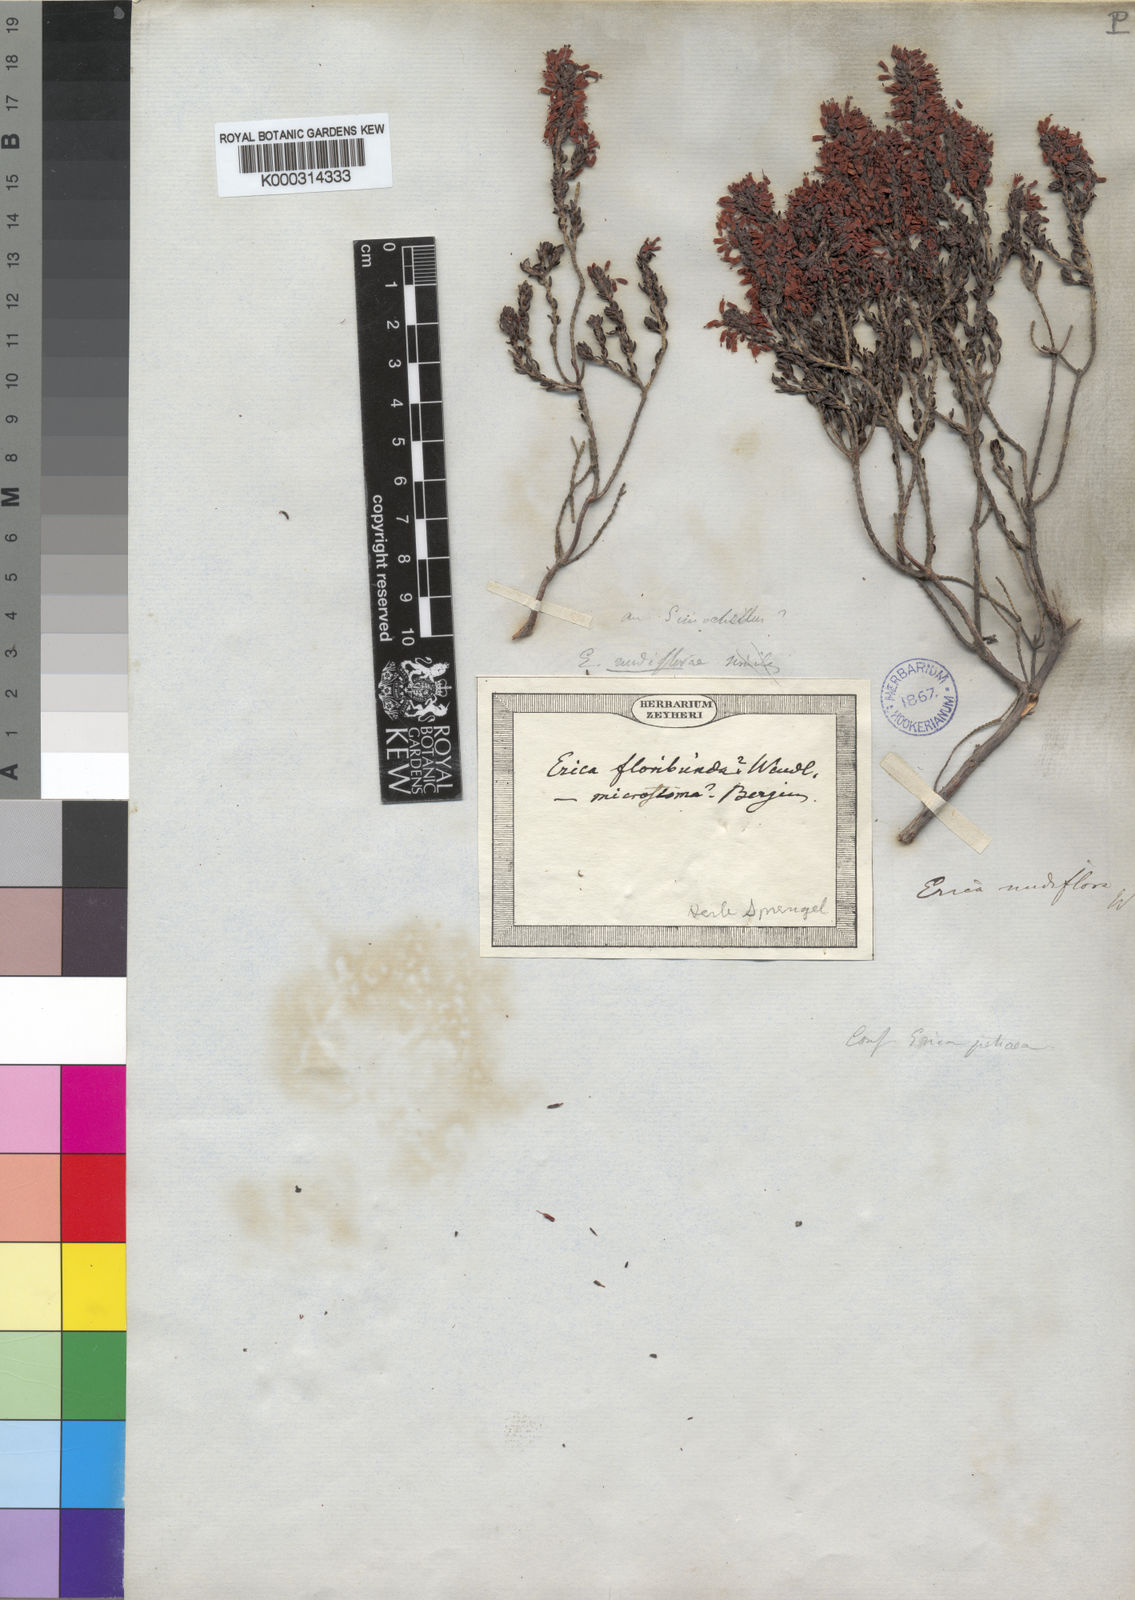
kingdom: Plantae
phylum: Tracheophyta
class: Magnoliopsida
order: Ericales
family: Ericaceae
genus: Erica
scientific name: Erica nudiflora
